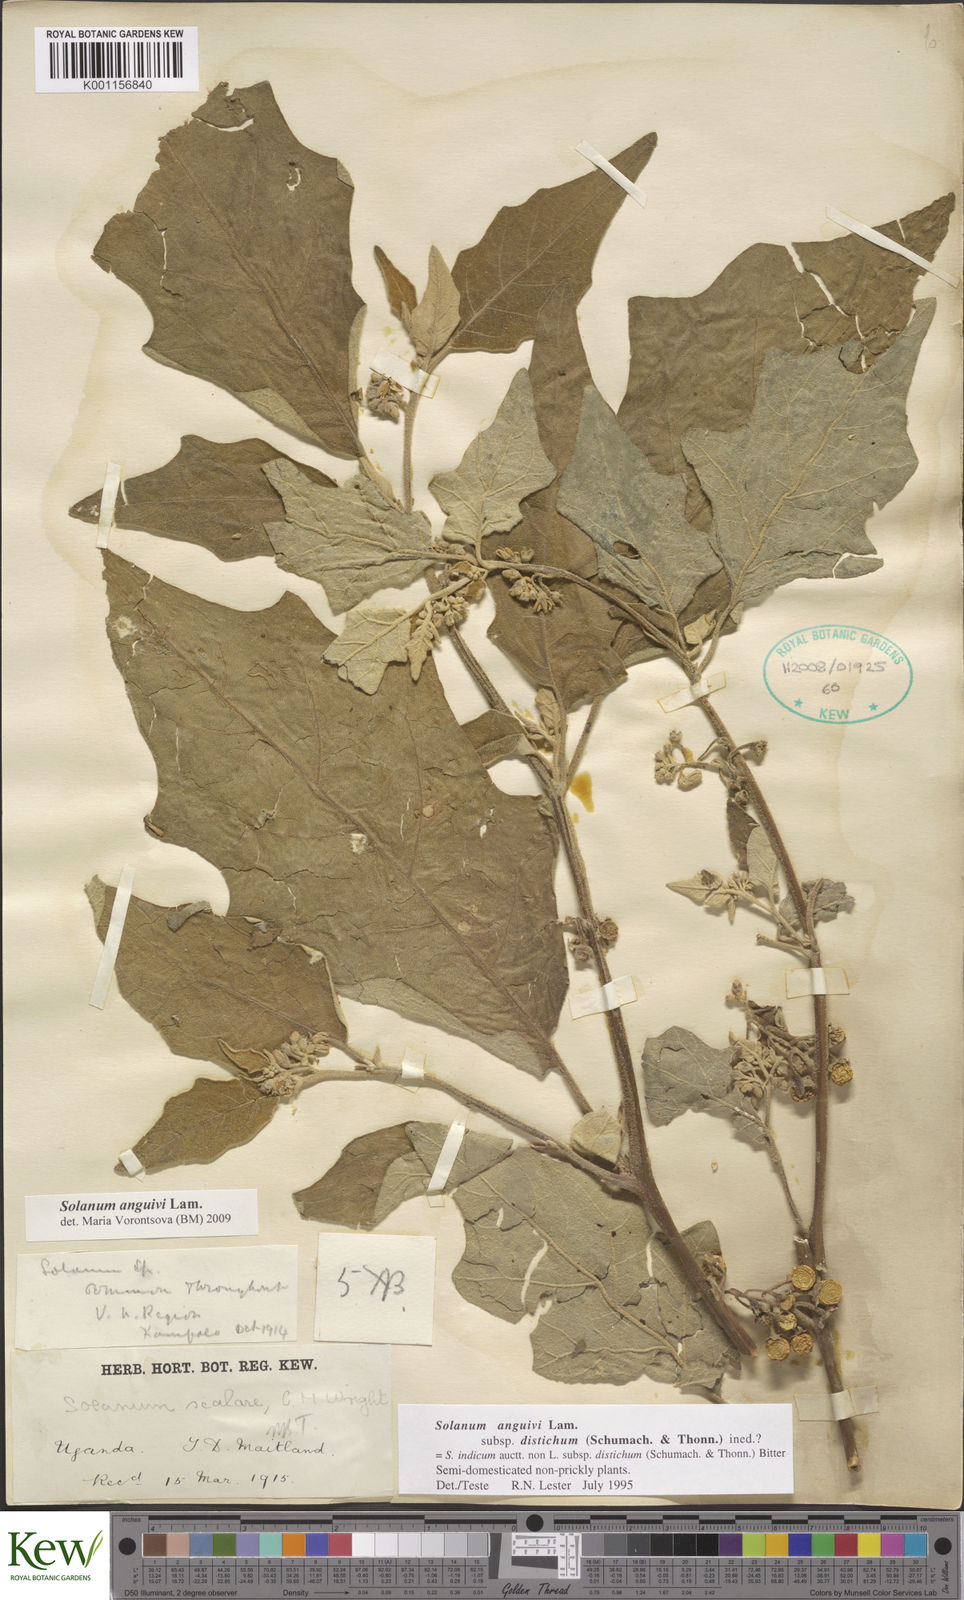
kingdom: Plantae
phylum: Tracheophyta
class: Magnoliopsida
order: Solanales
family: Solanaceae
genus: Solanum
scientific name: Solanum anguivi
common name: Forest bitterberry
